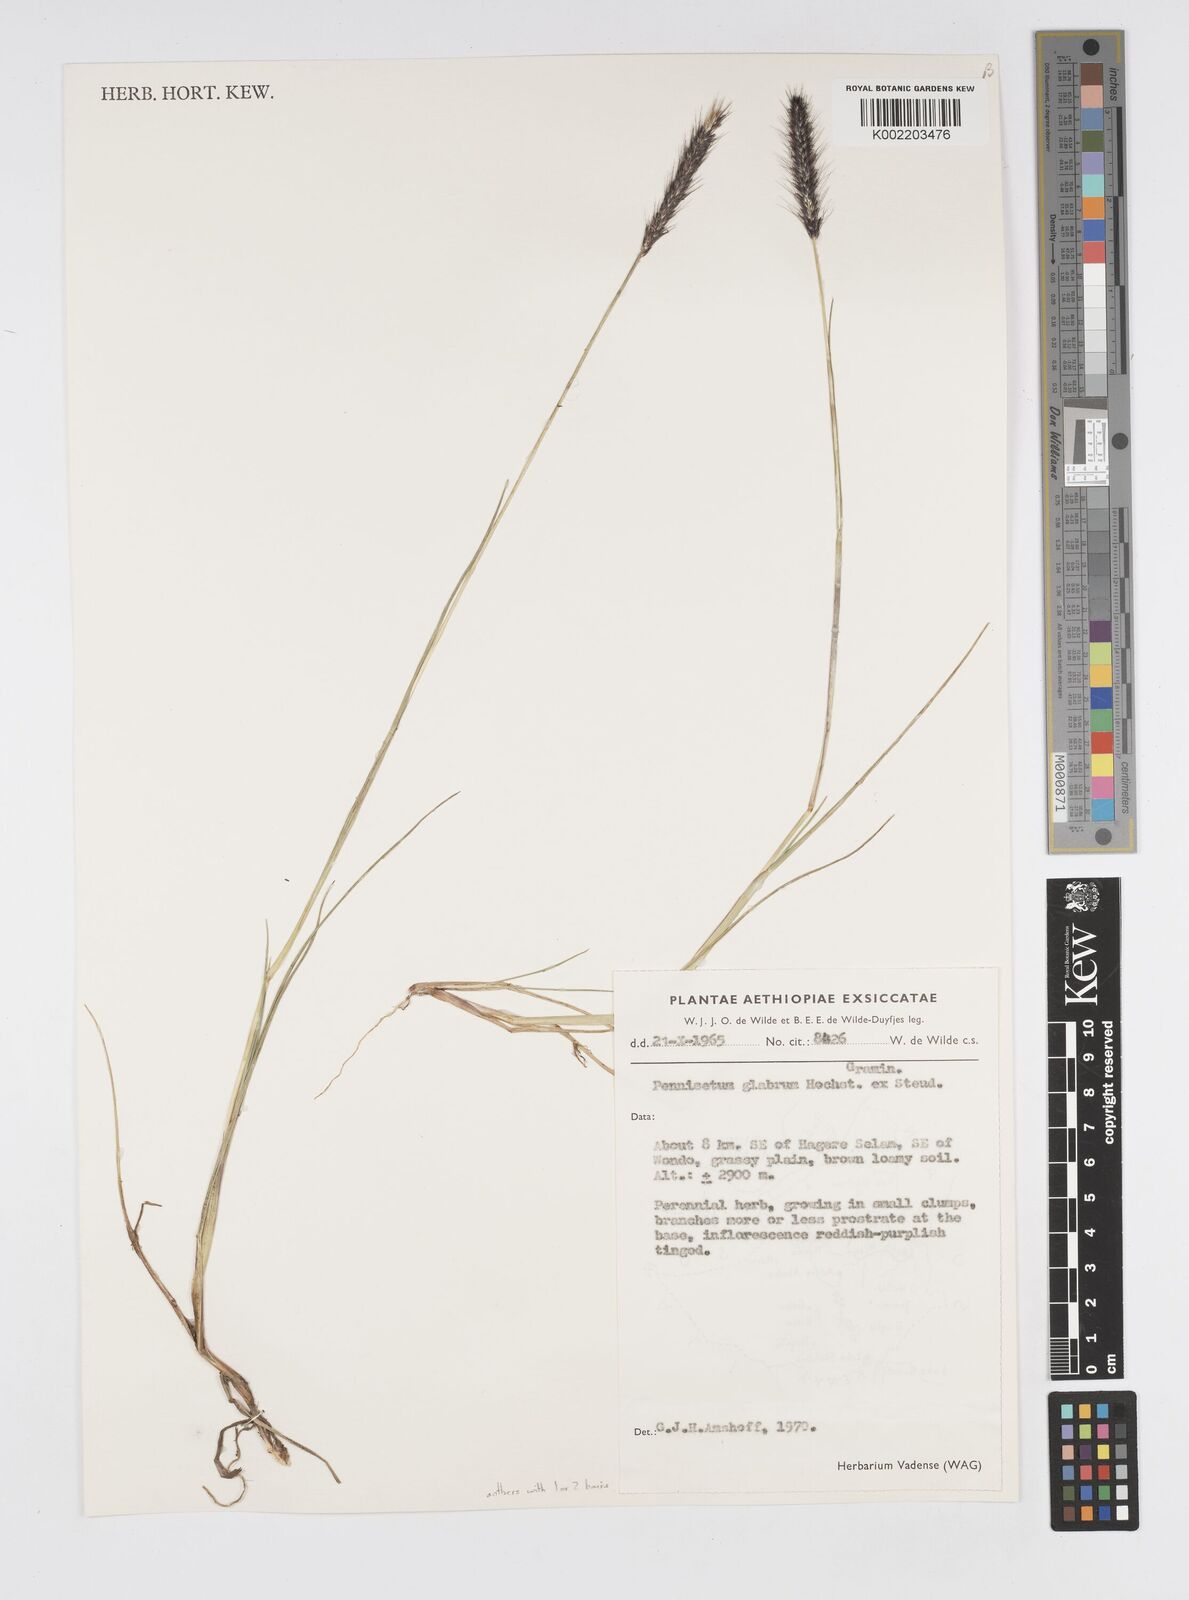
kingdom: Plantae
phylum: Tracheophyta
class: Liliopsida
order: Poales
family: Poaceae
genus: Cenchrus
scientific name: Cenchrus geniculatus
